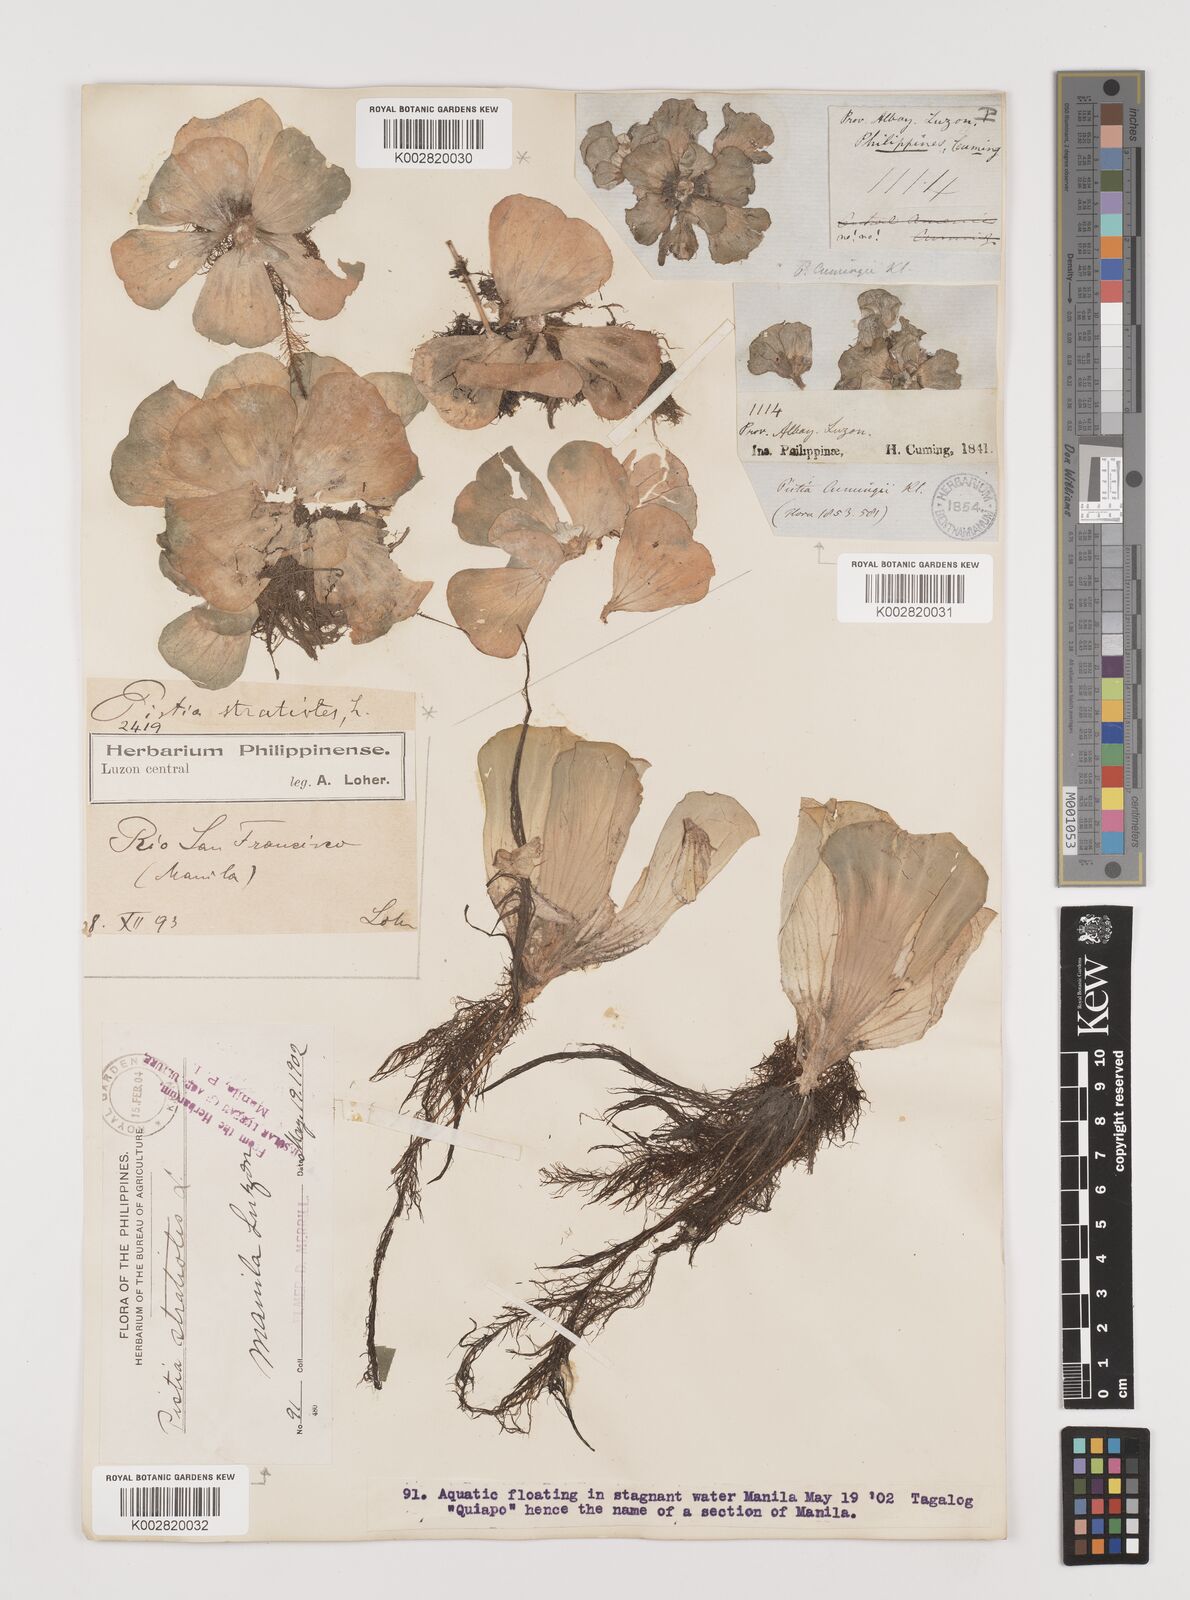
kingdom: Plantae
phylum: Tracheophyta
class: Liliopsida
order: Alismatales
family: Araceae
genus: Pistia
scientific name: Pistia stratiotes
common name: Water lettuce
